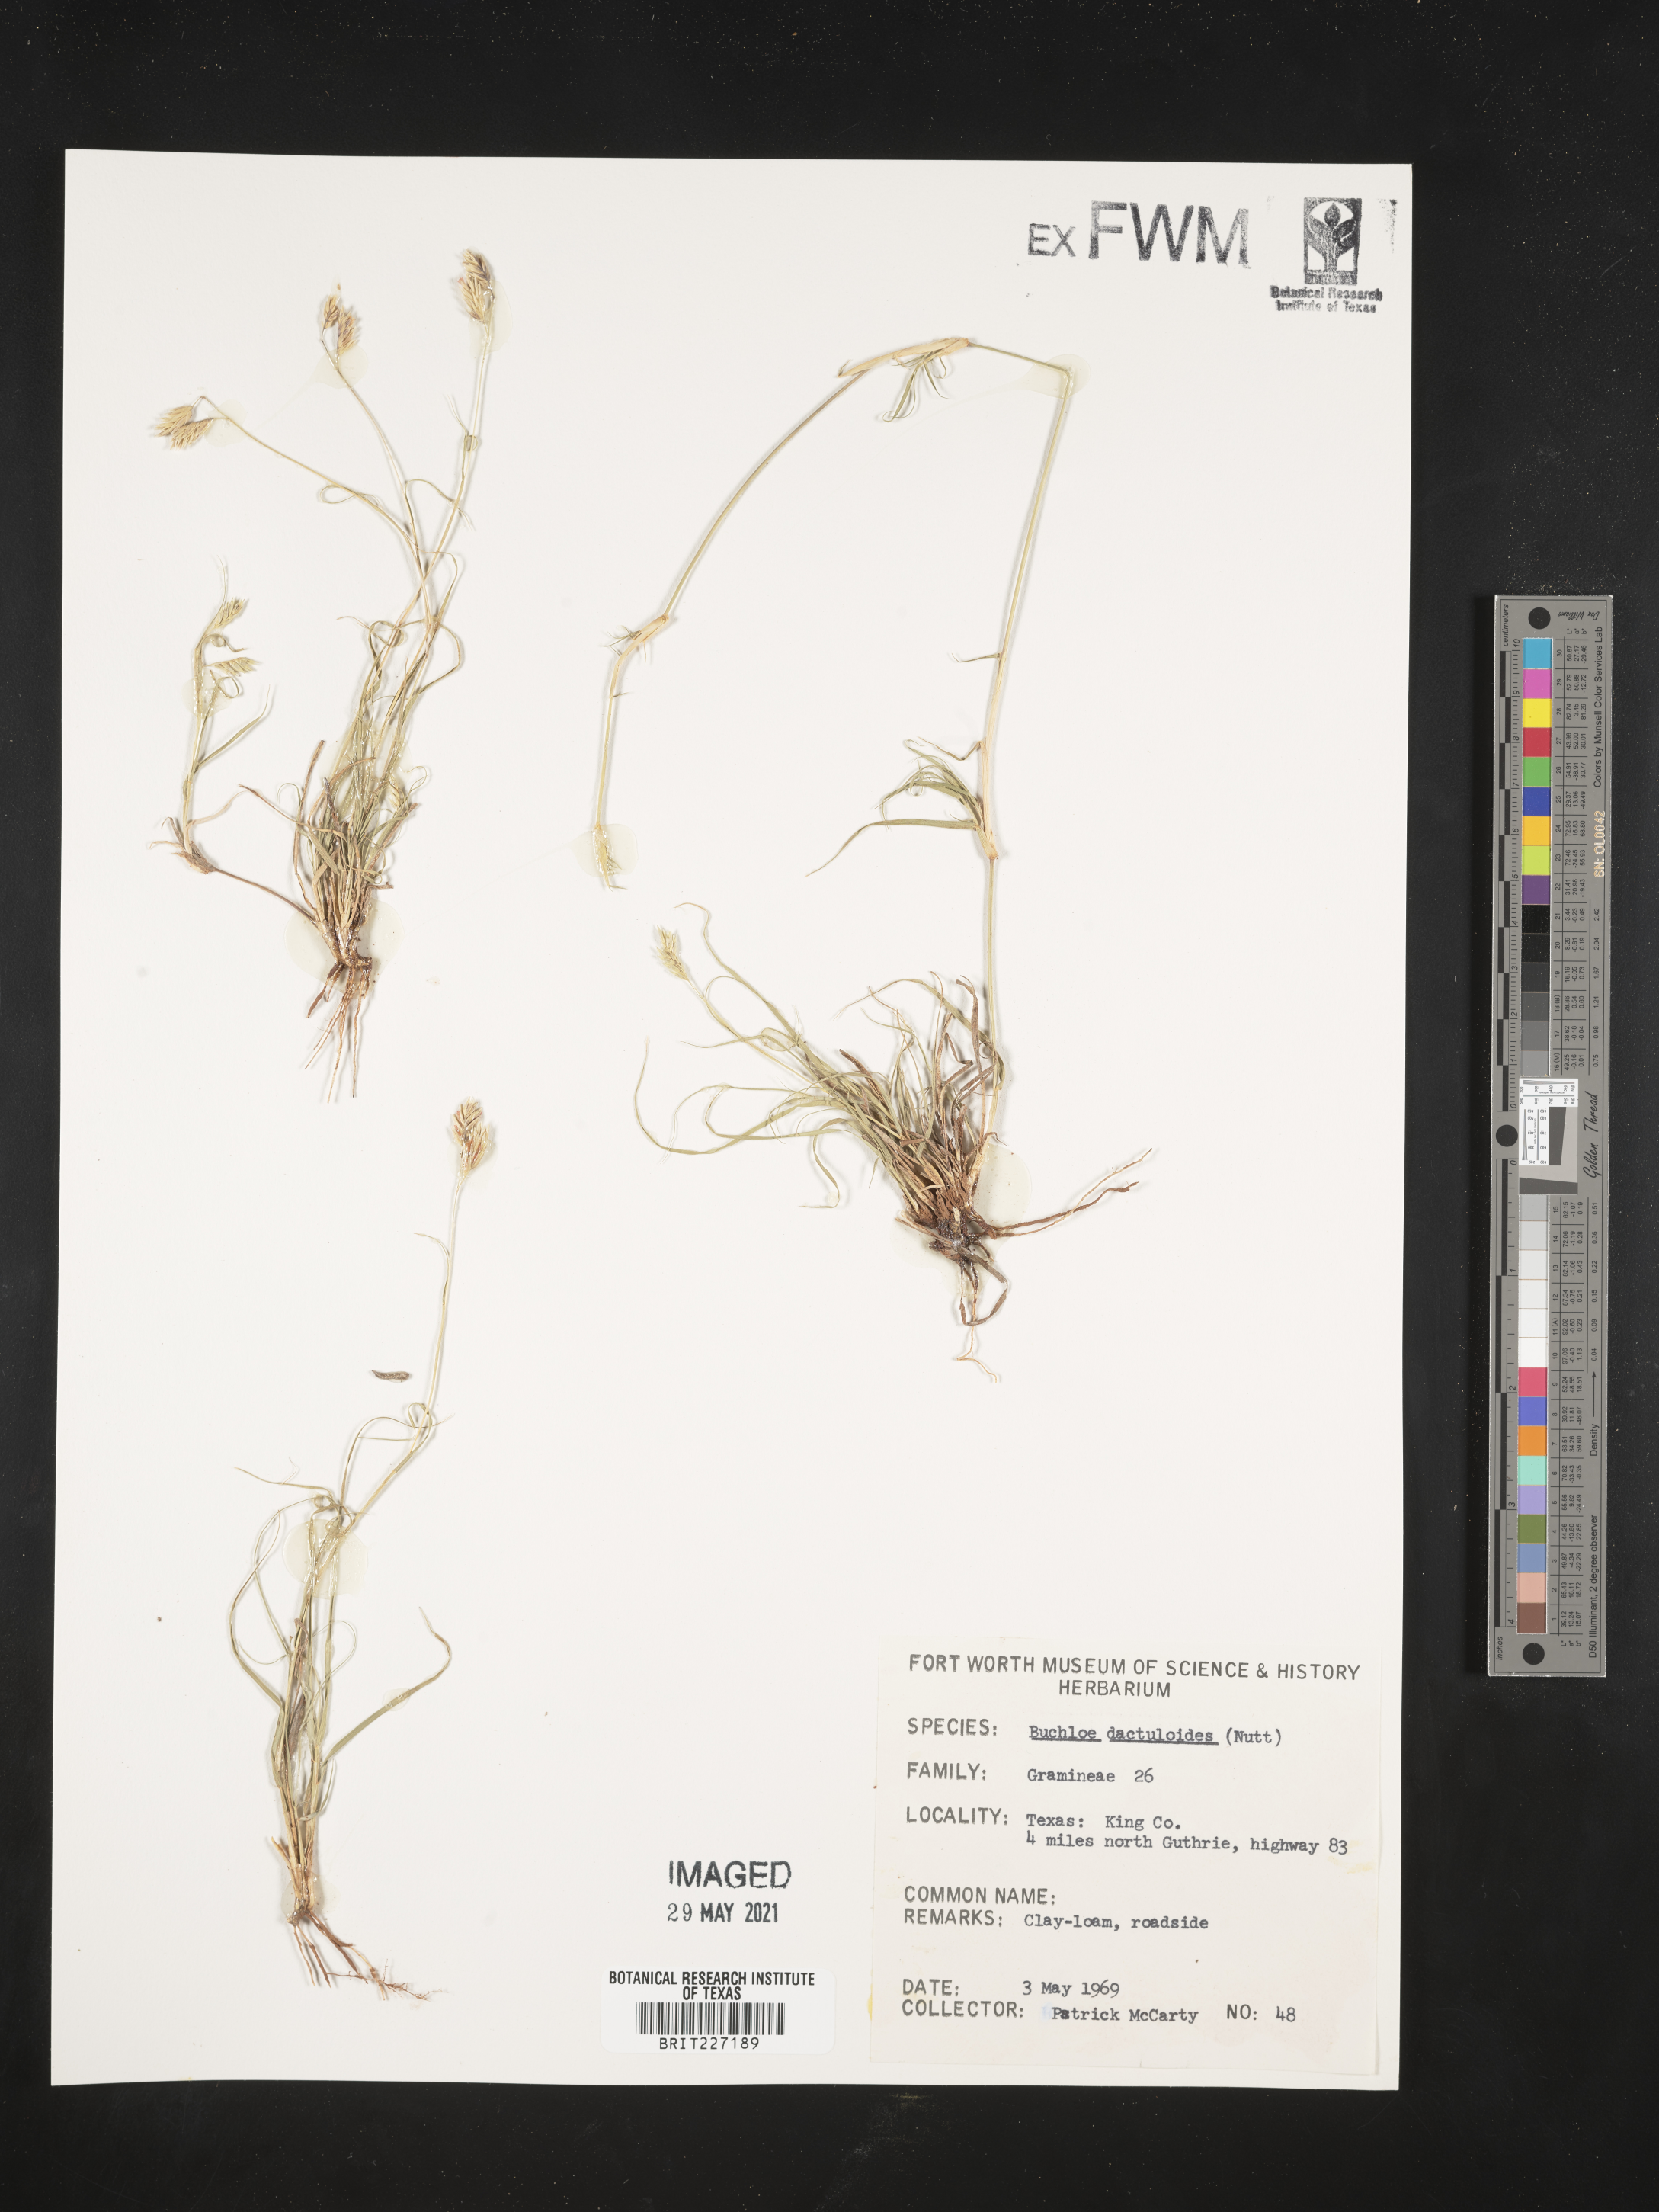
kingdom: Plantae
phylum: Tracheophyta
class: Liliopsida
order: Poales
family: Poaceae
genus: Bouteloua
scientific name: Bouteloua dactyloides
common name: Buffalo grass
